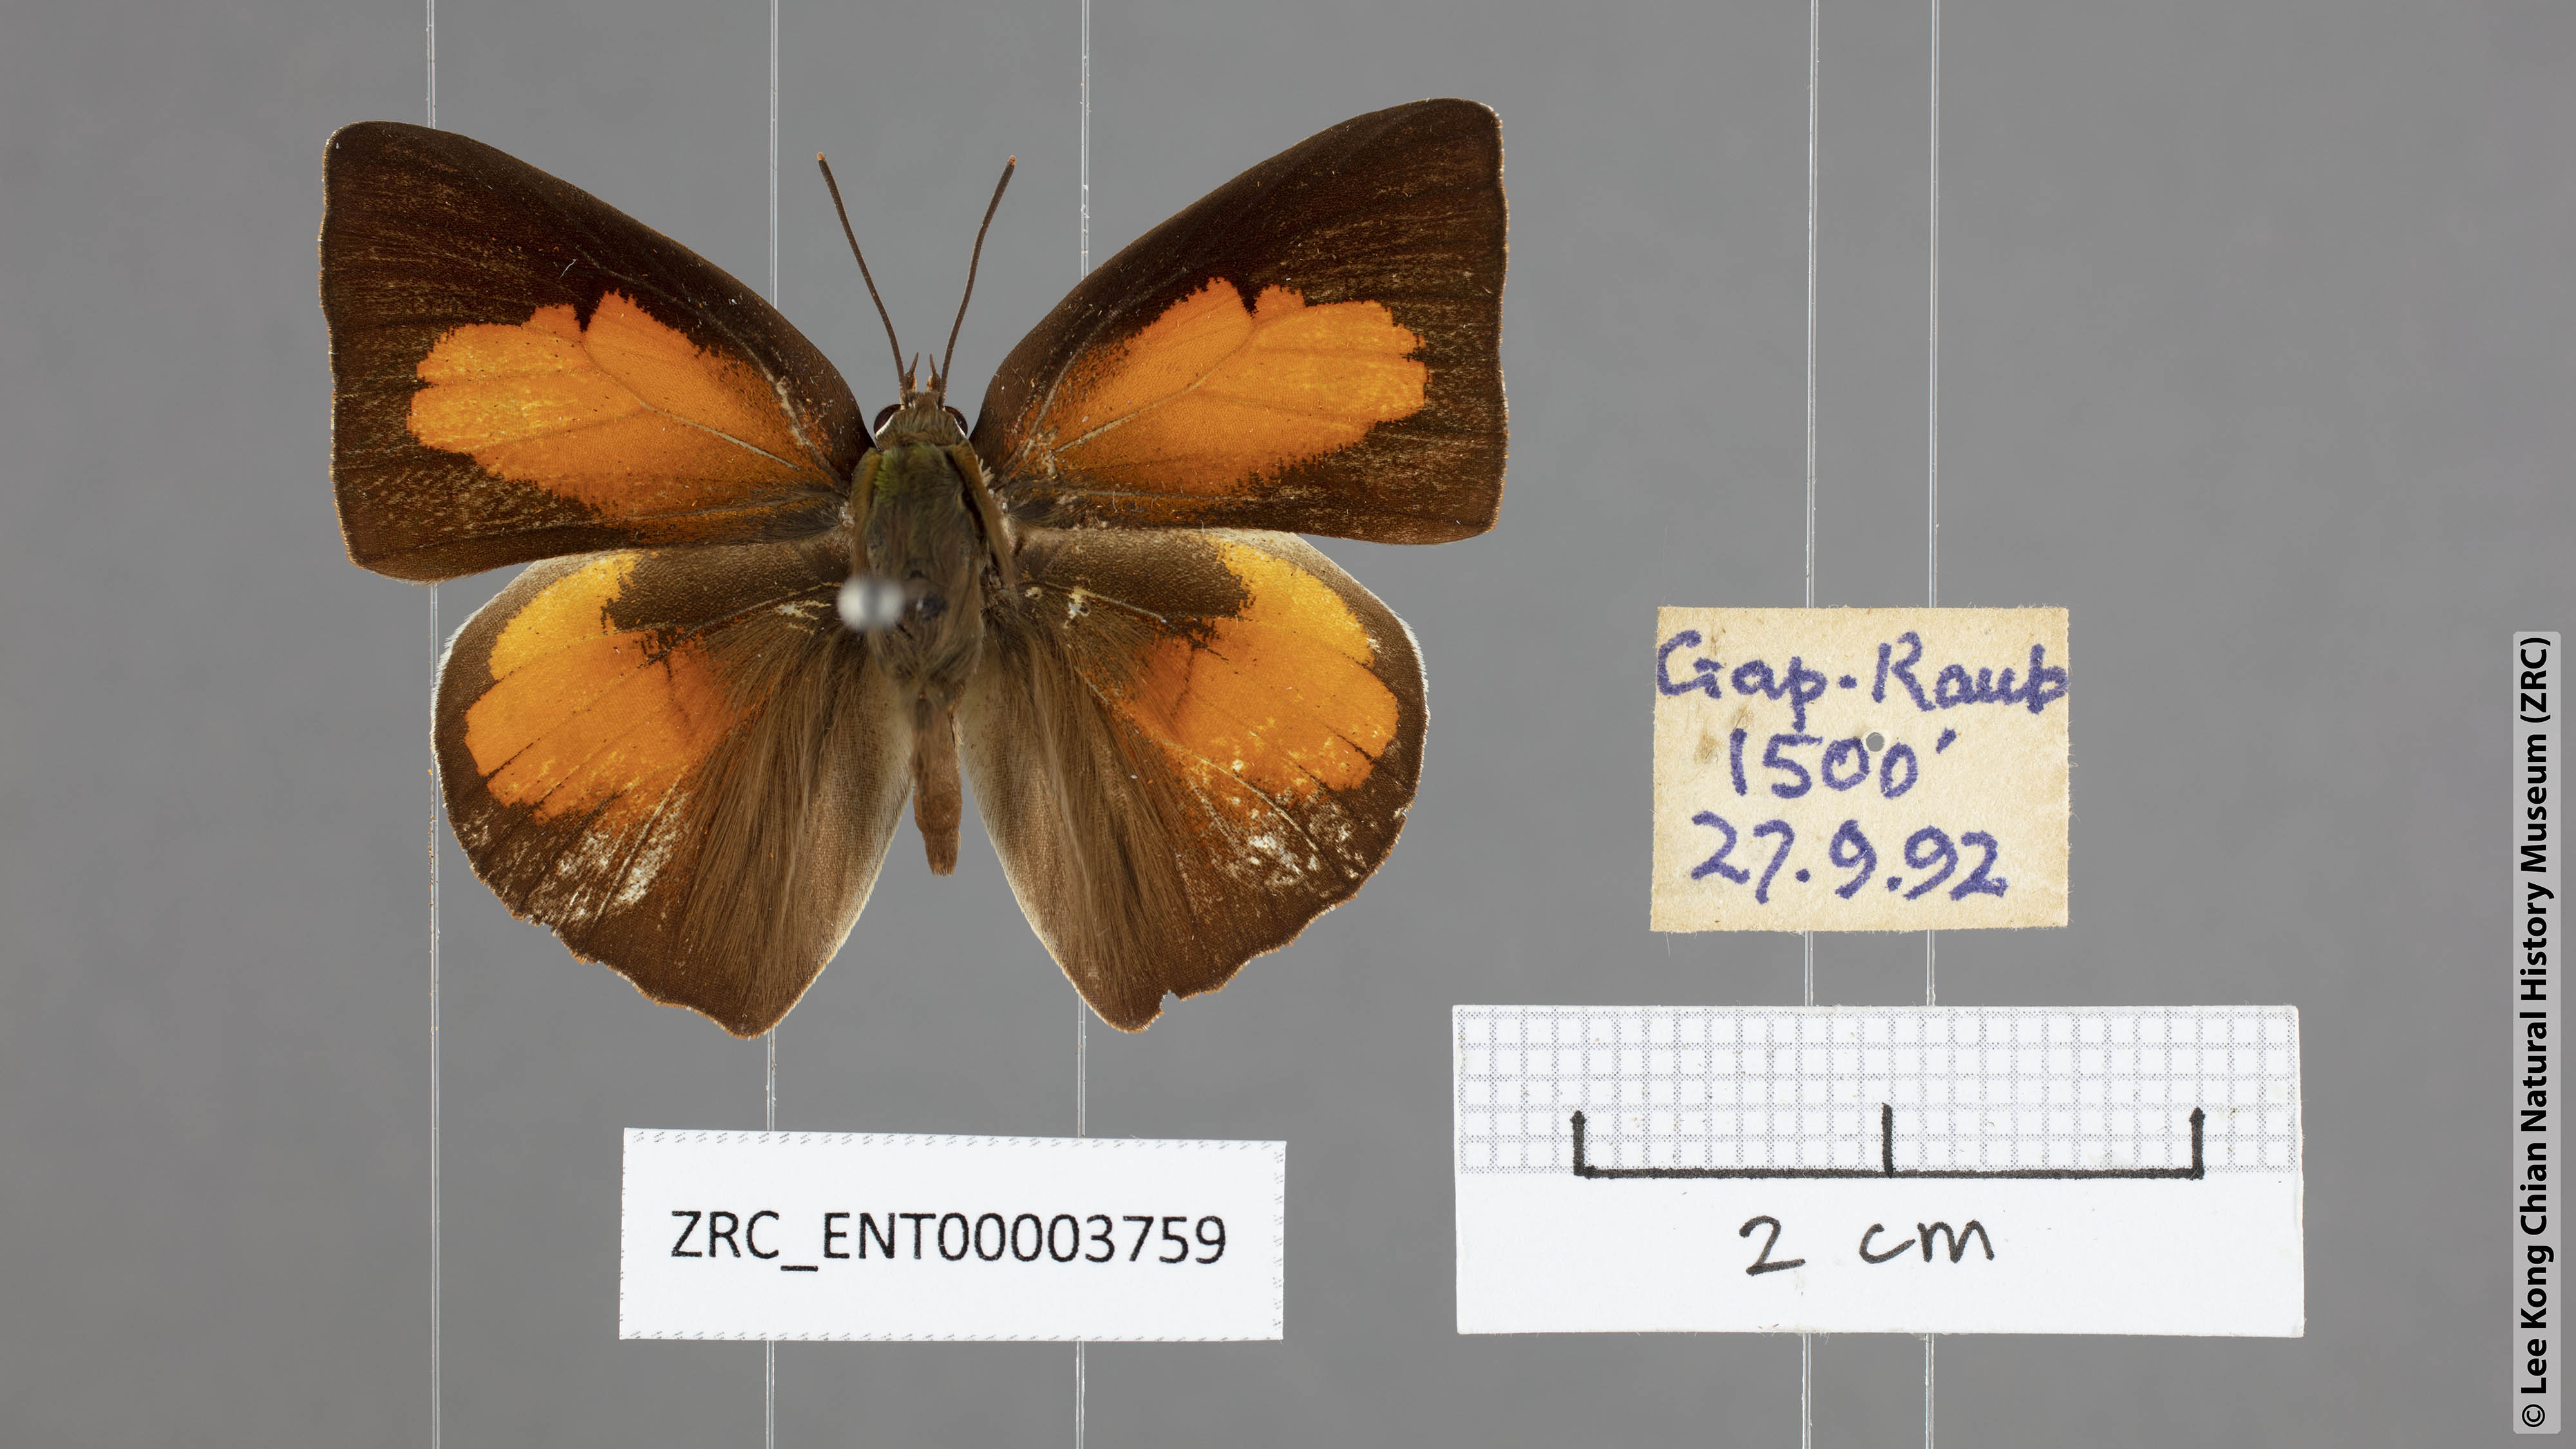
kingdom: Animalia
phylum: Arthropoda
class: Insecta
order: Lepidoptera
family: Lycaenidae
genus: Curetis
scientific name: Curetis sperthis
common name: Rounded sunbeam
